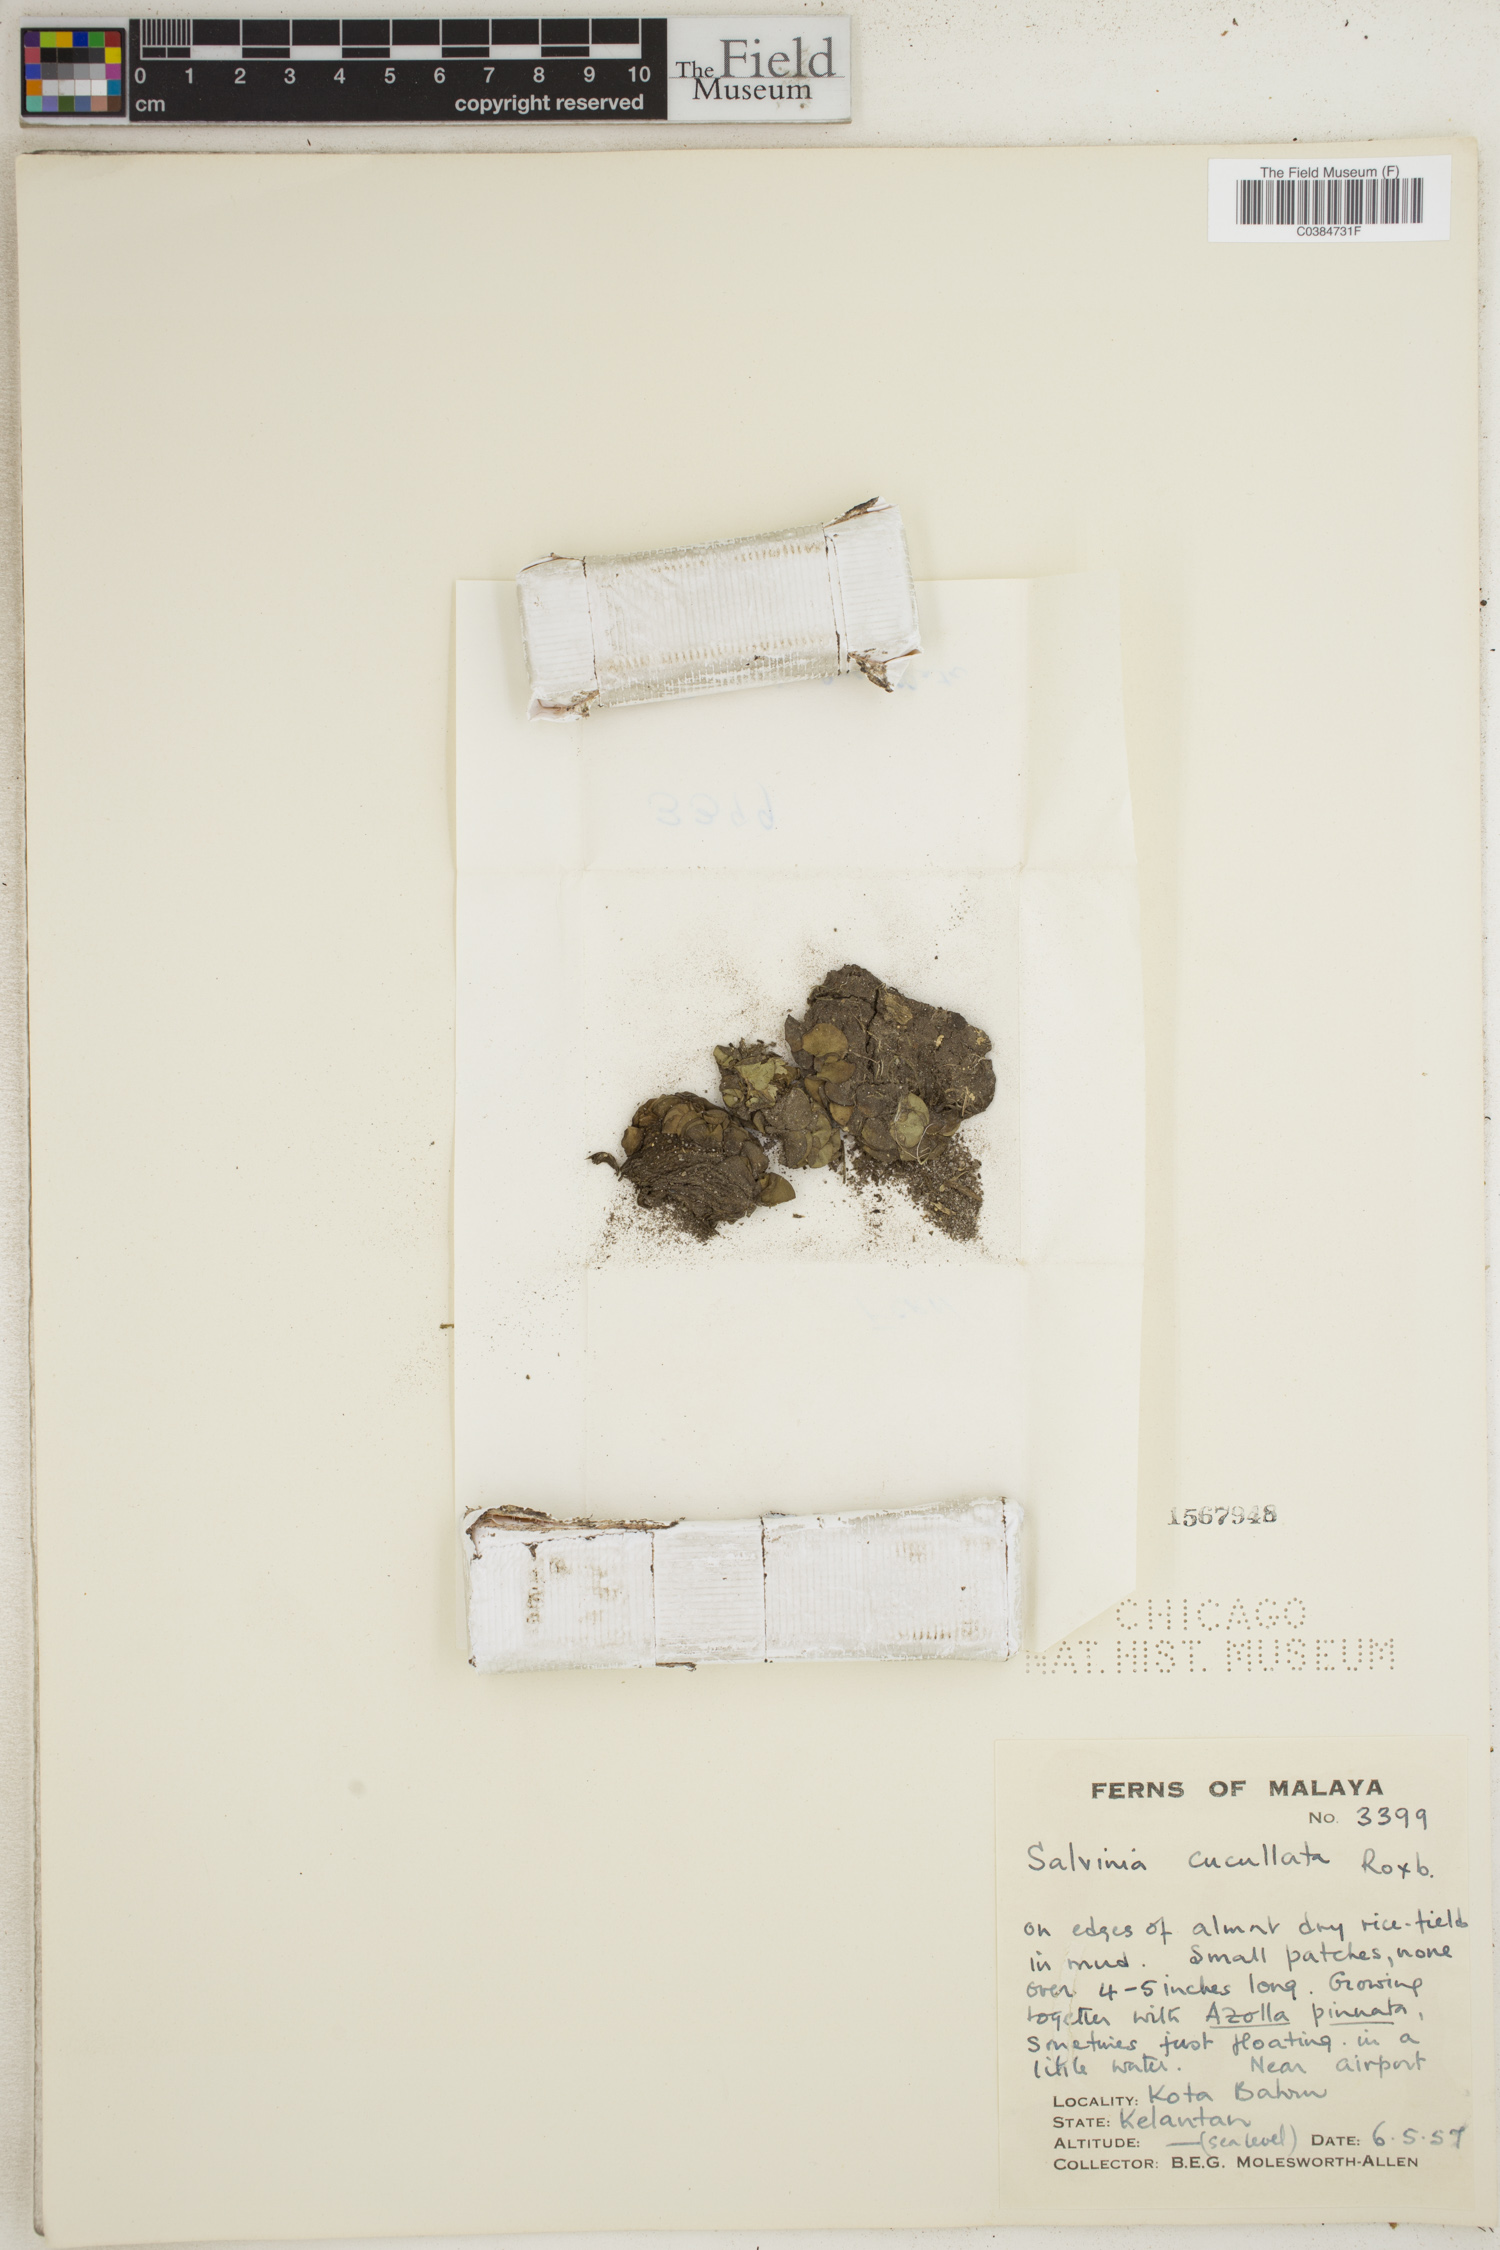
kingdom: Plantae
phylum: Tracheophyta
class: Polypodiopsida
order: Salviniales
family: Salviniaceae
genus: Salvinia
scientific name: Salvinia cucullata
